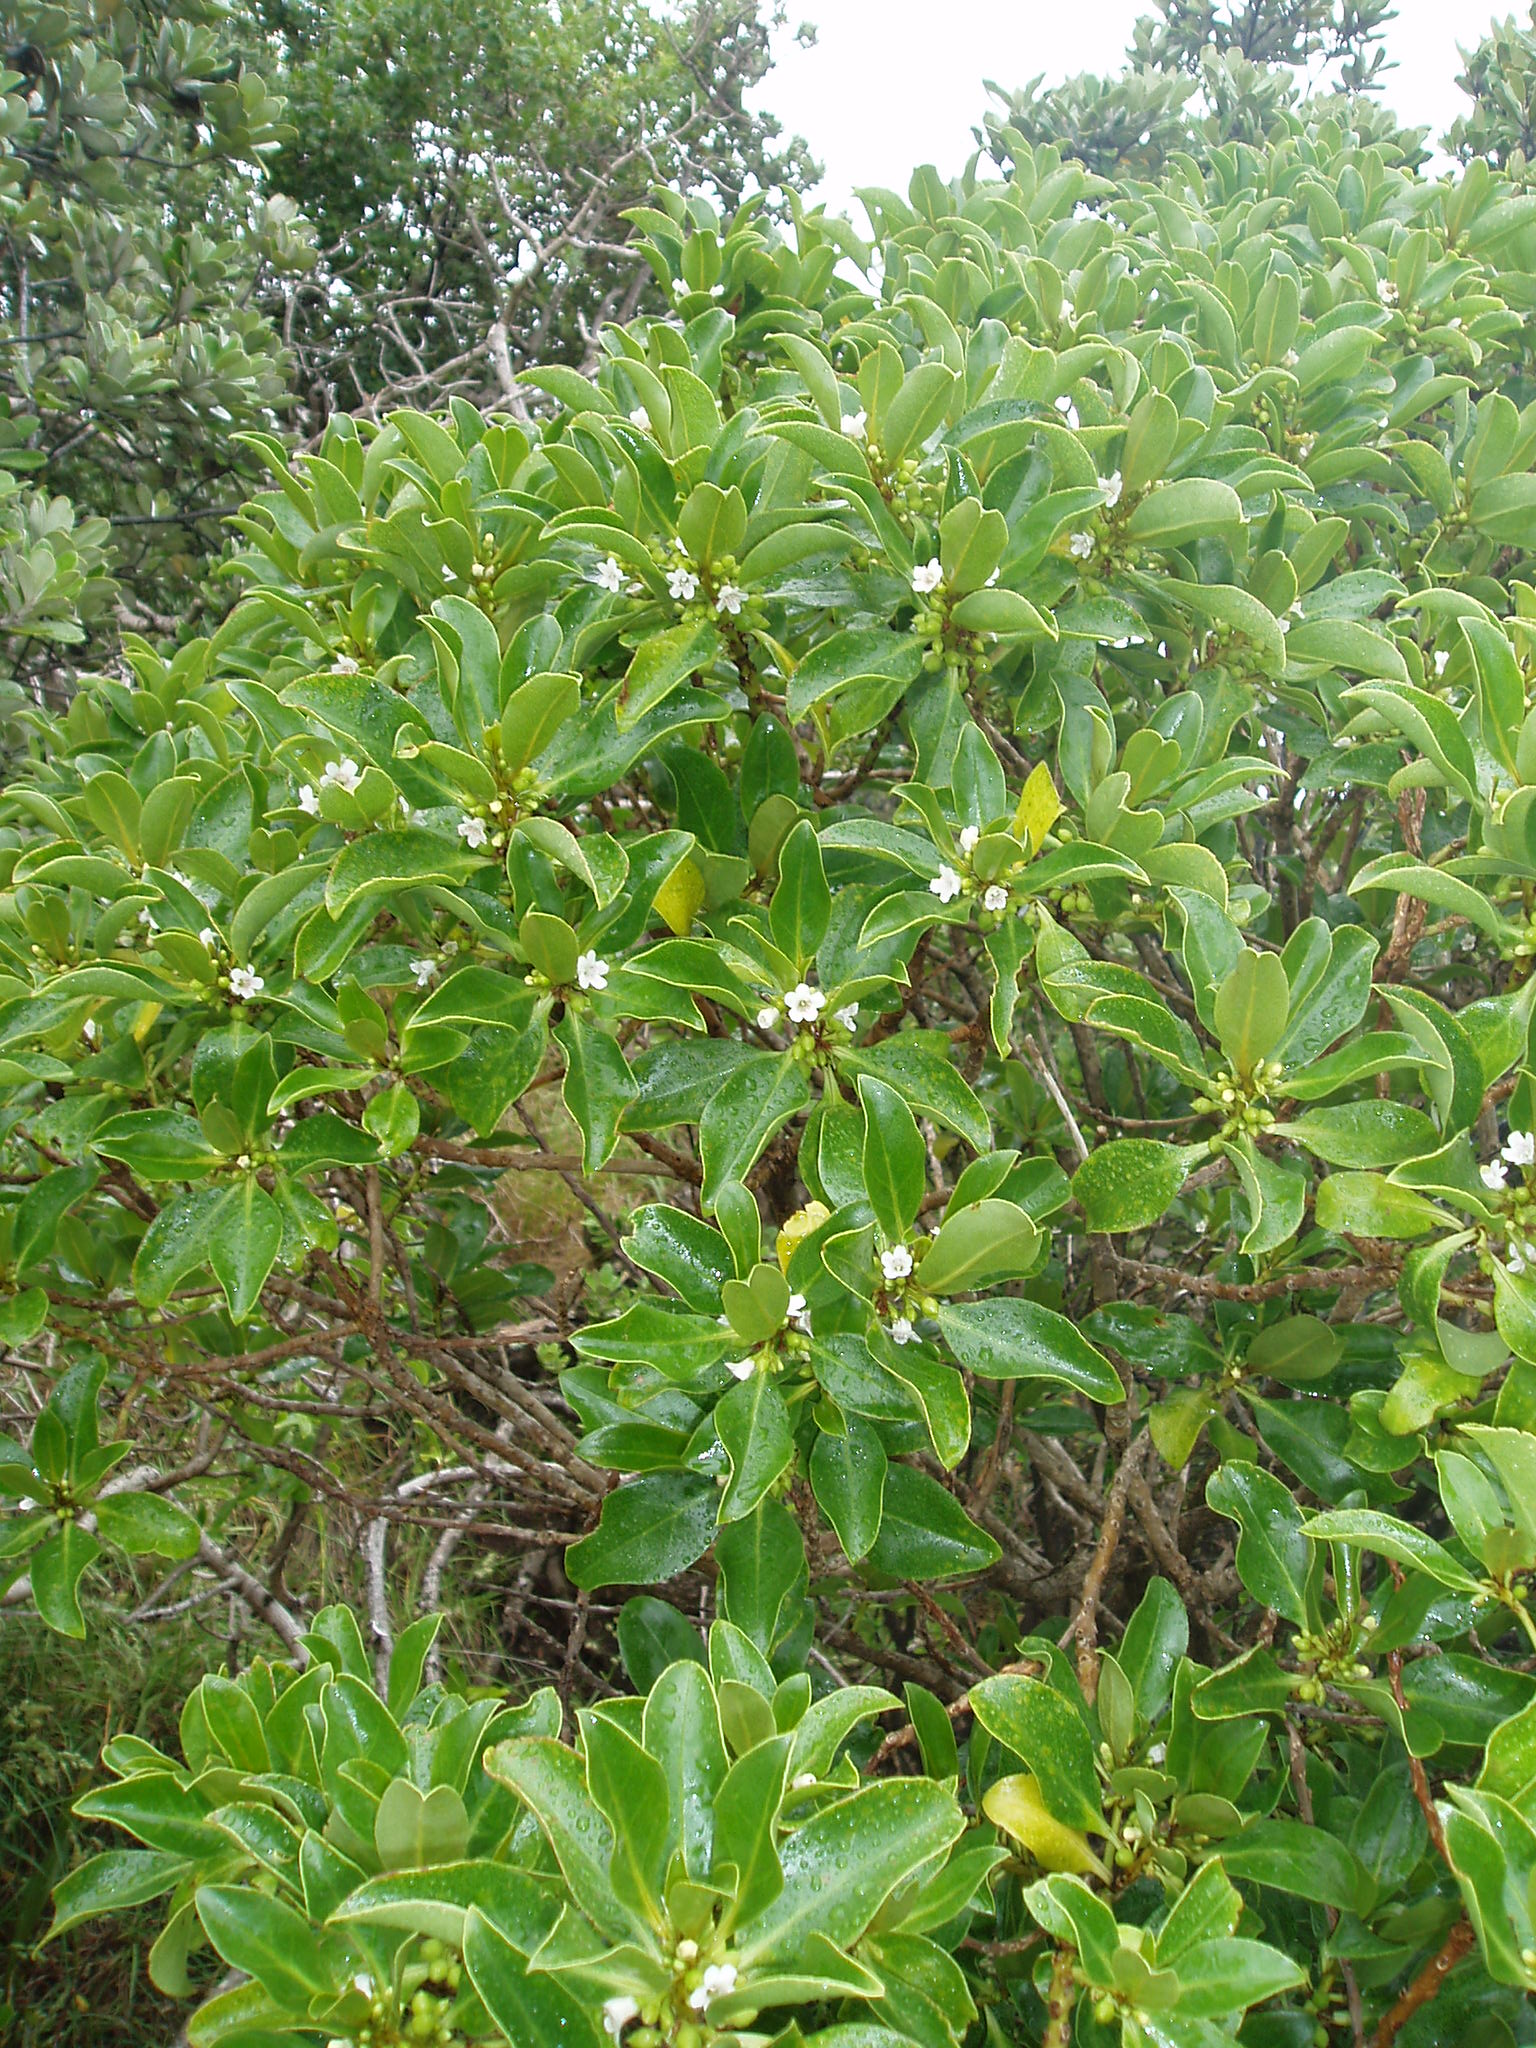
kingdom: Plantae
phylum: Tracheophyta
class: Magnoliopsida
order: Lamiales
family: Scrophulariaceae
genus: Myoporum
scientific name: Myoporum laetum
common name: Ngaio tree
